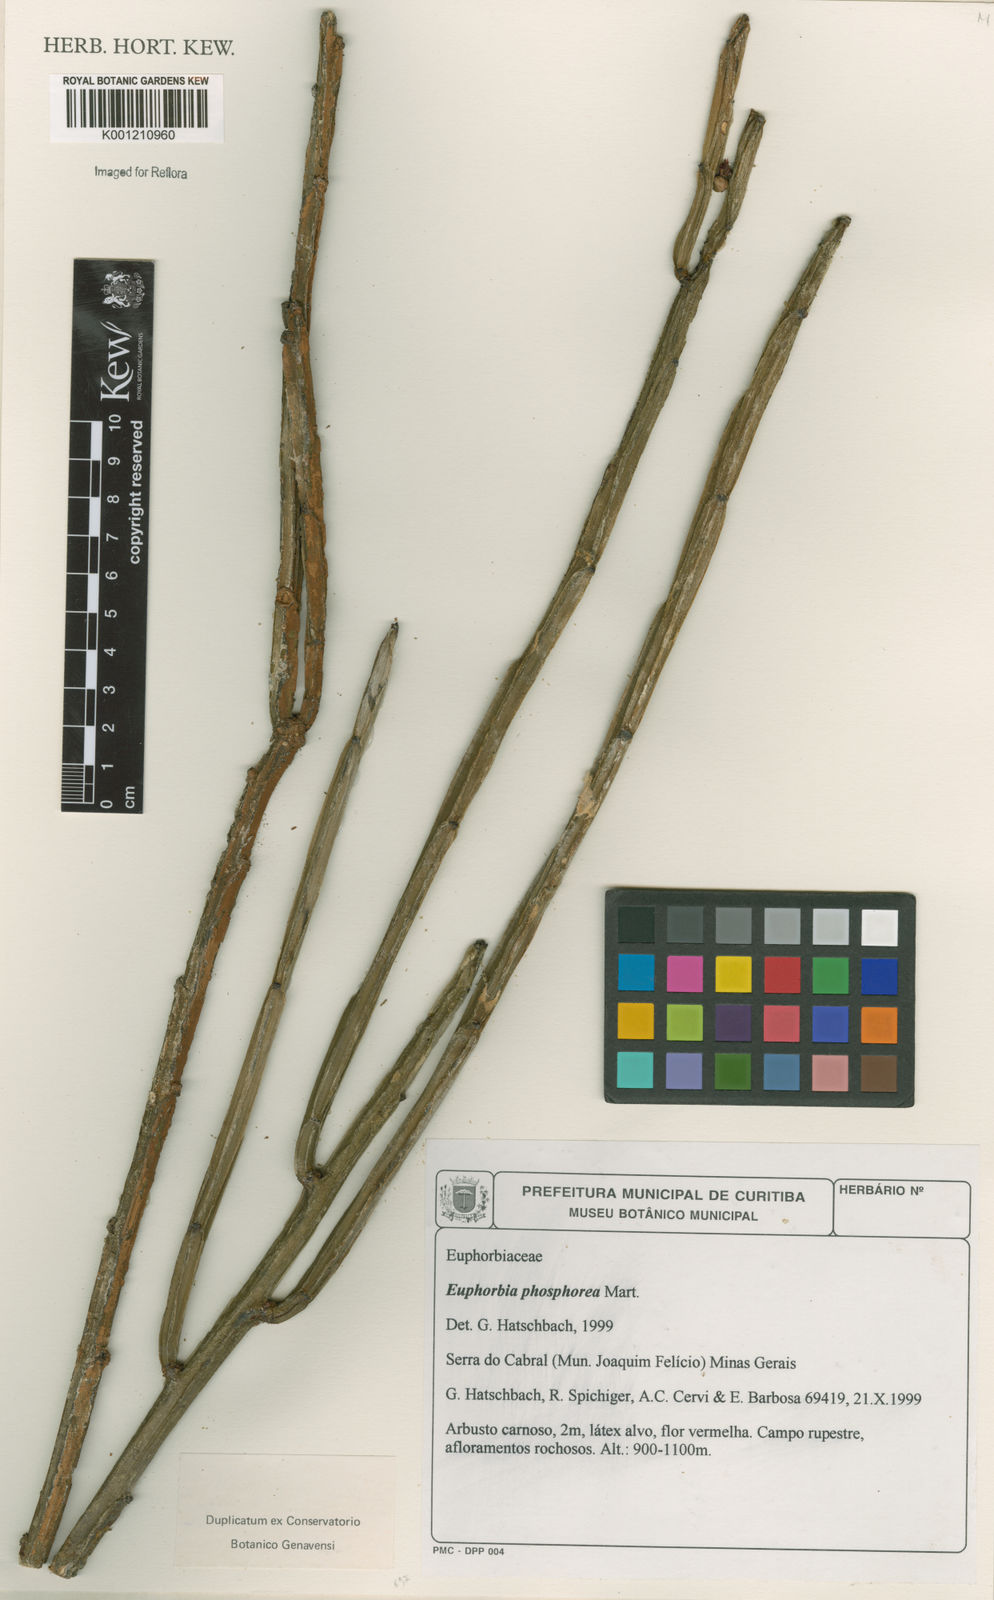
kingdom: Plantae
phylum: Tracheophyta
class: Magnoliopsida
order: Malpighiales
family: Euphorbiaceae
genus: Euphorbia
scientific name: Euphorbia phosphorea
